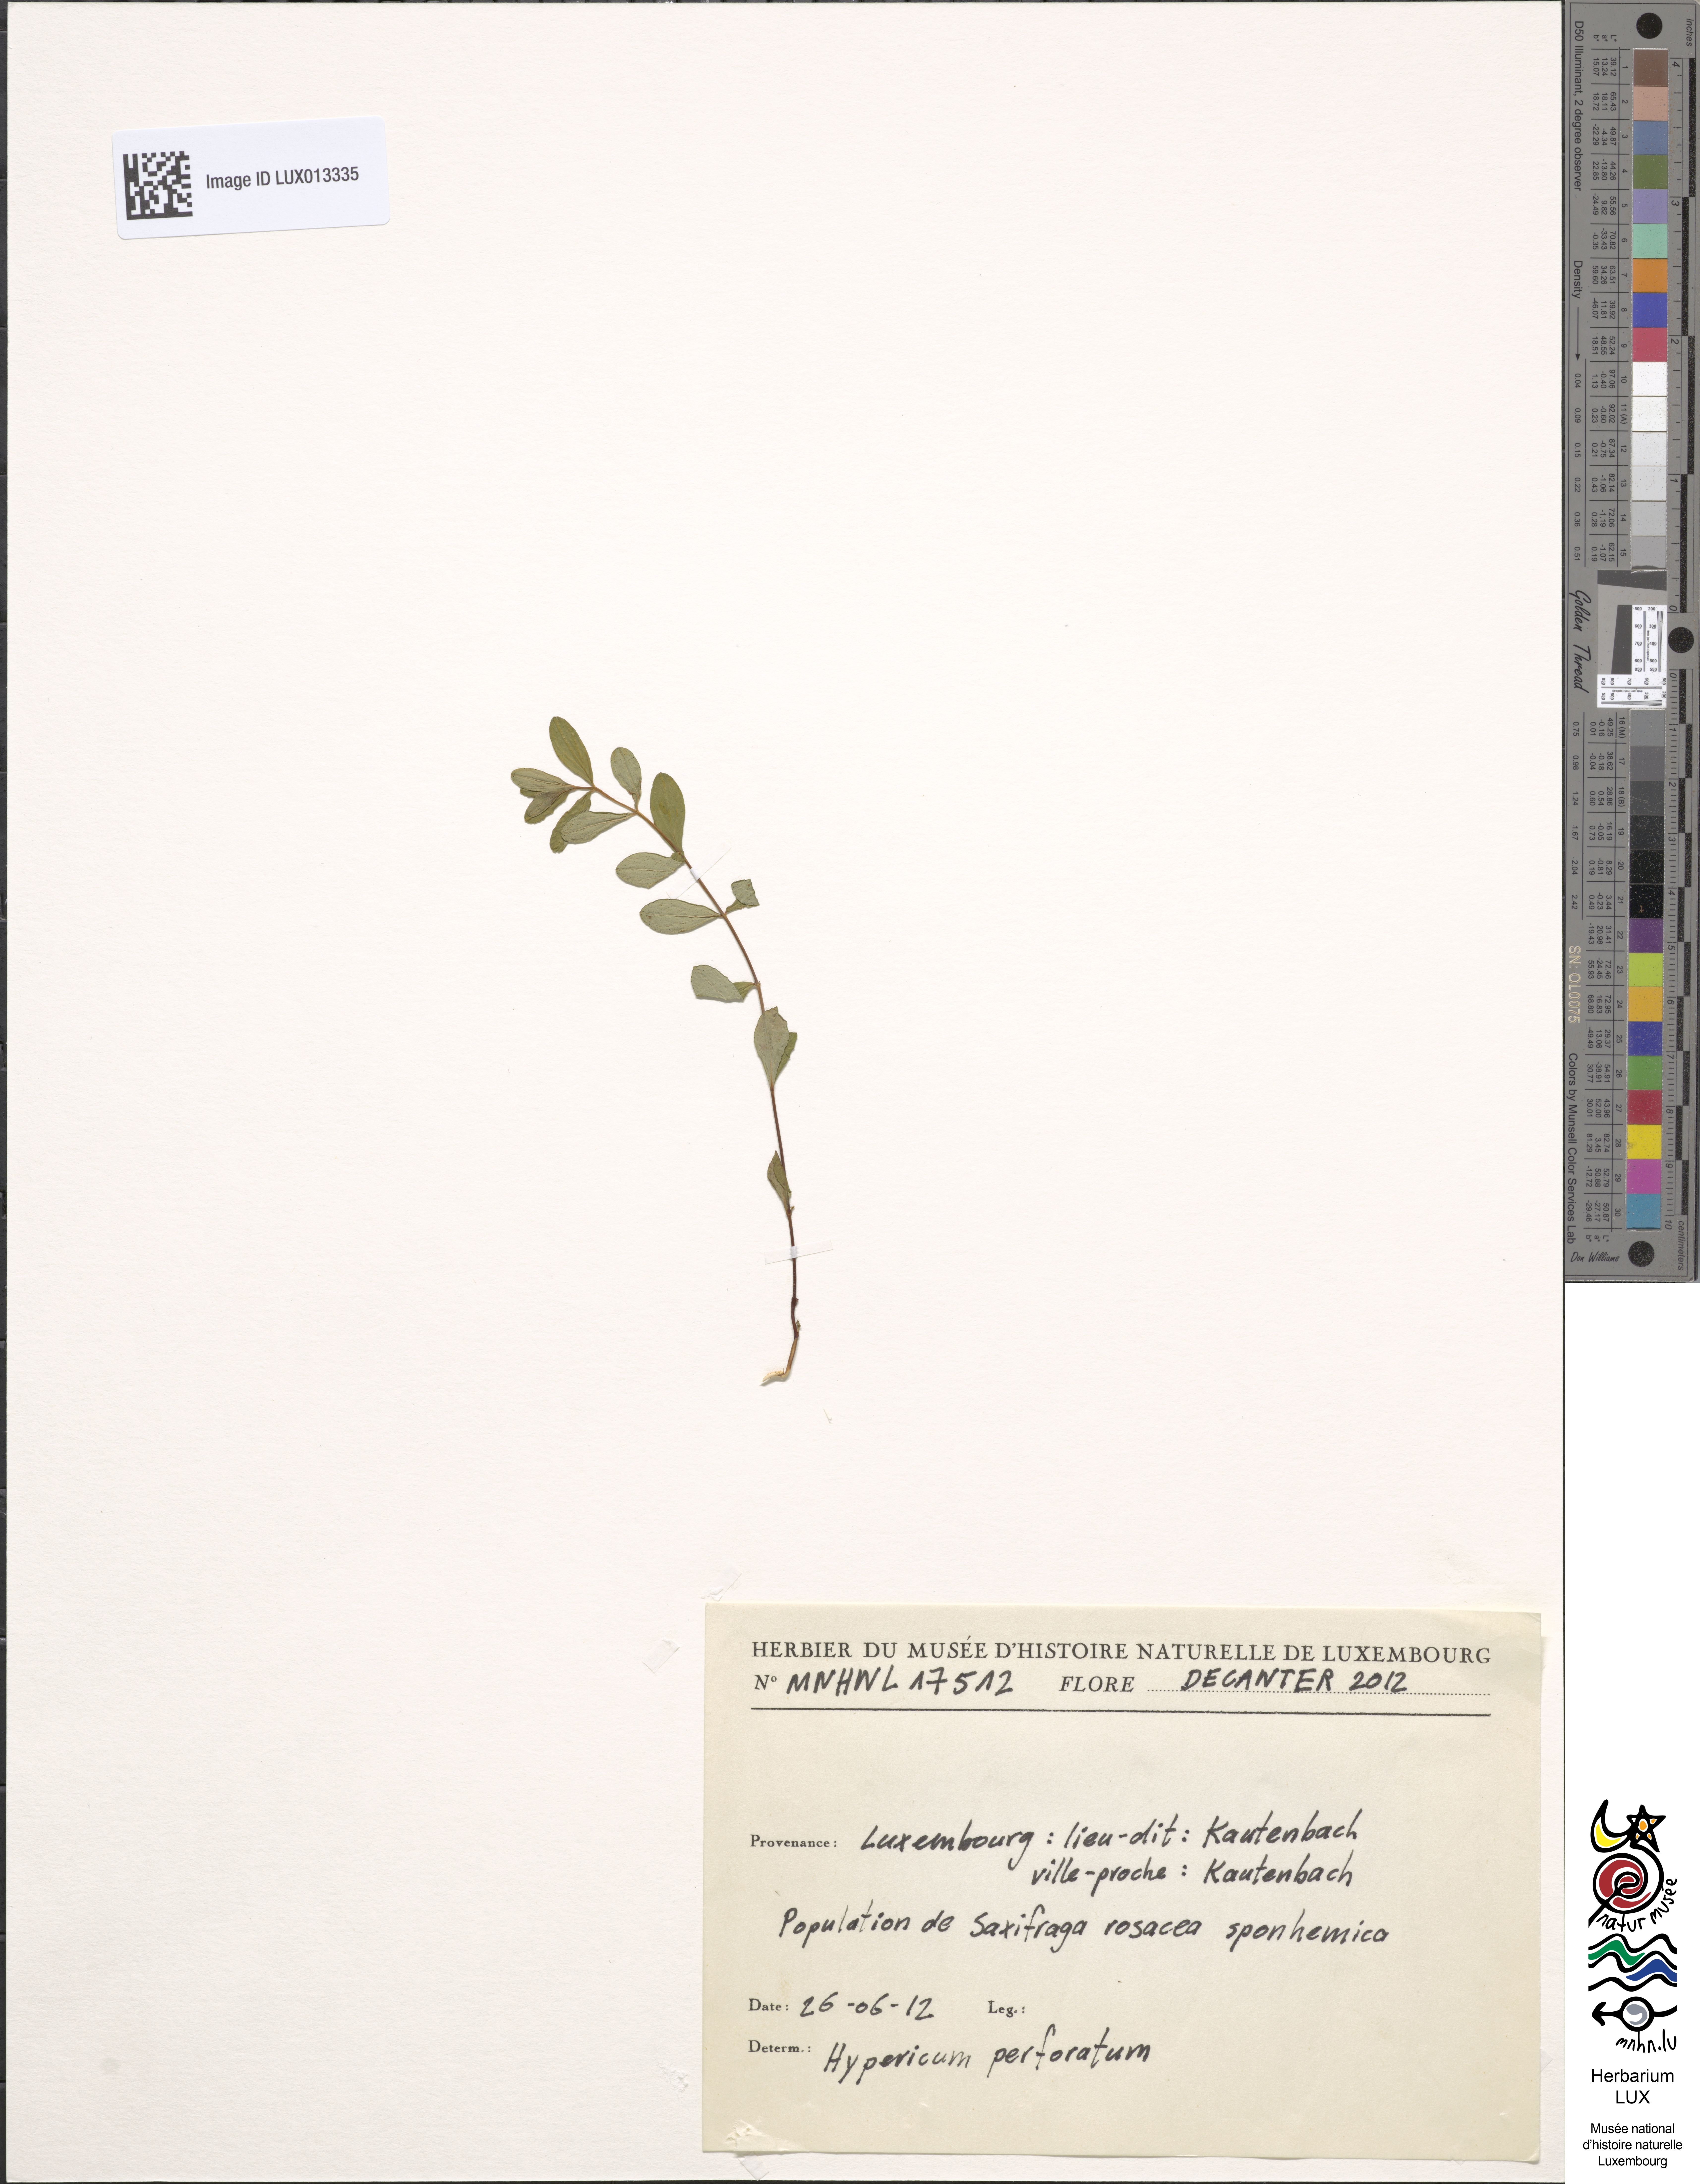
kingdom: Plantae
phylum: Tracheophyta
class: Magnoliopsida
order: Malpighiales
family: Hypericaceae
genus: Hypericum
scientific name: Hypericum perforatum
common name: Common st. johnswort
